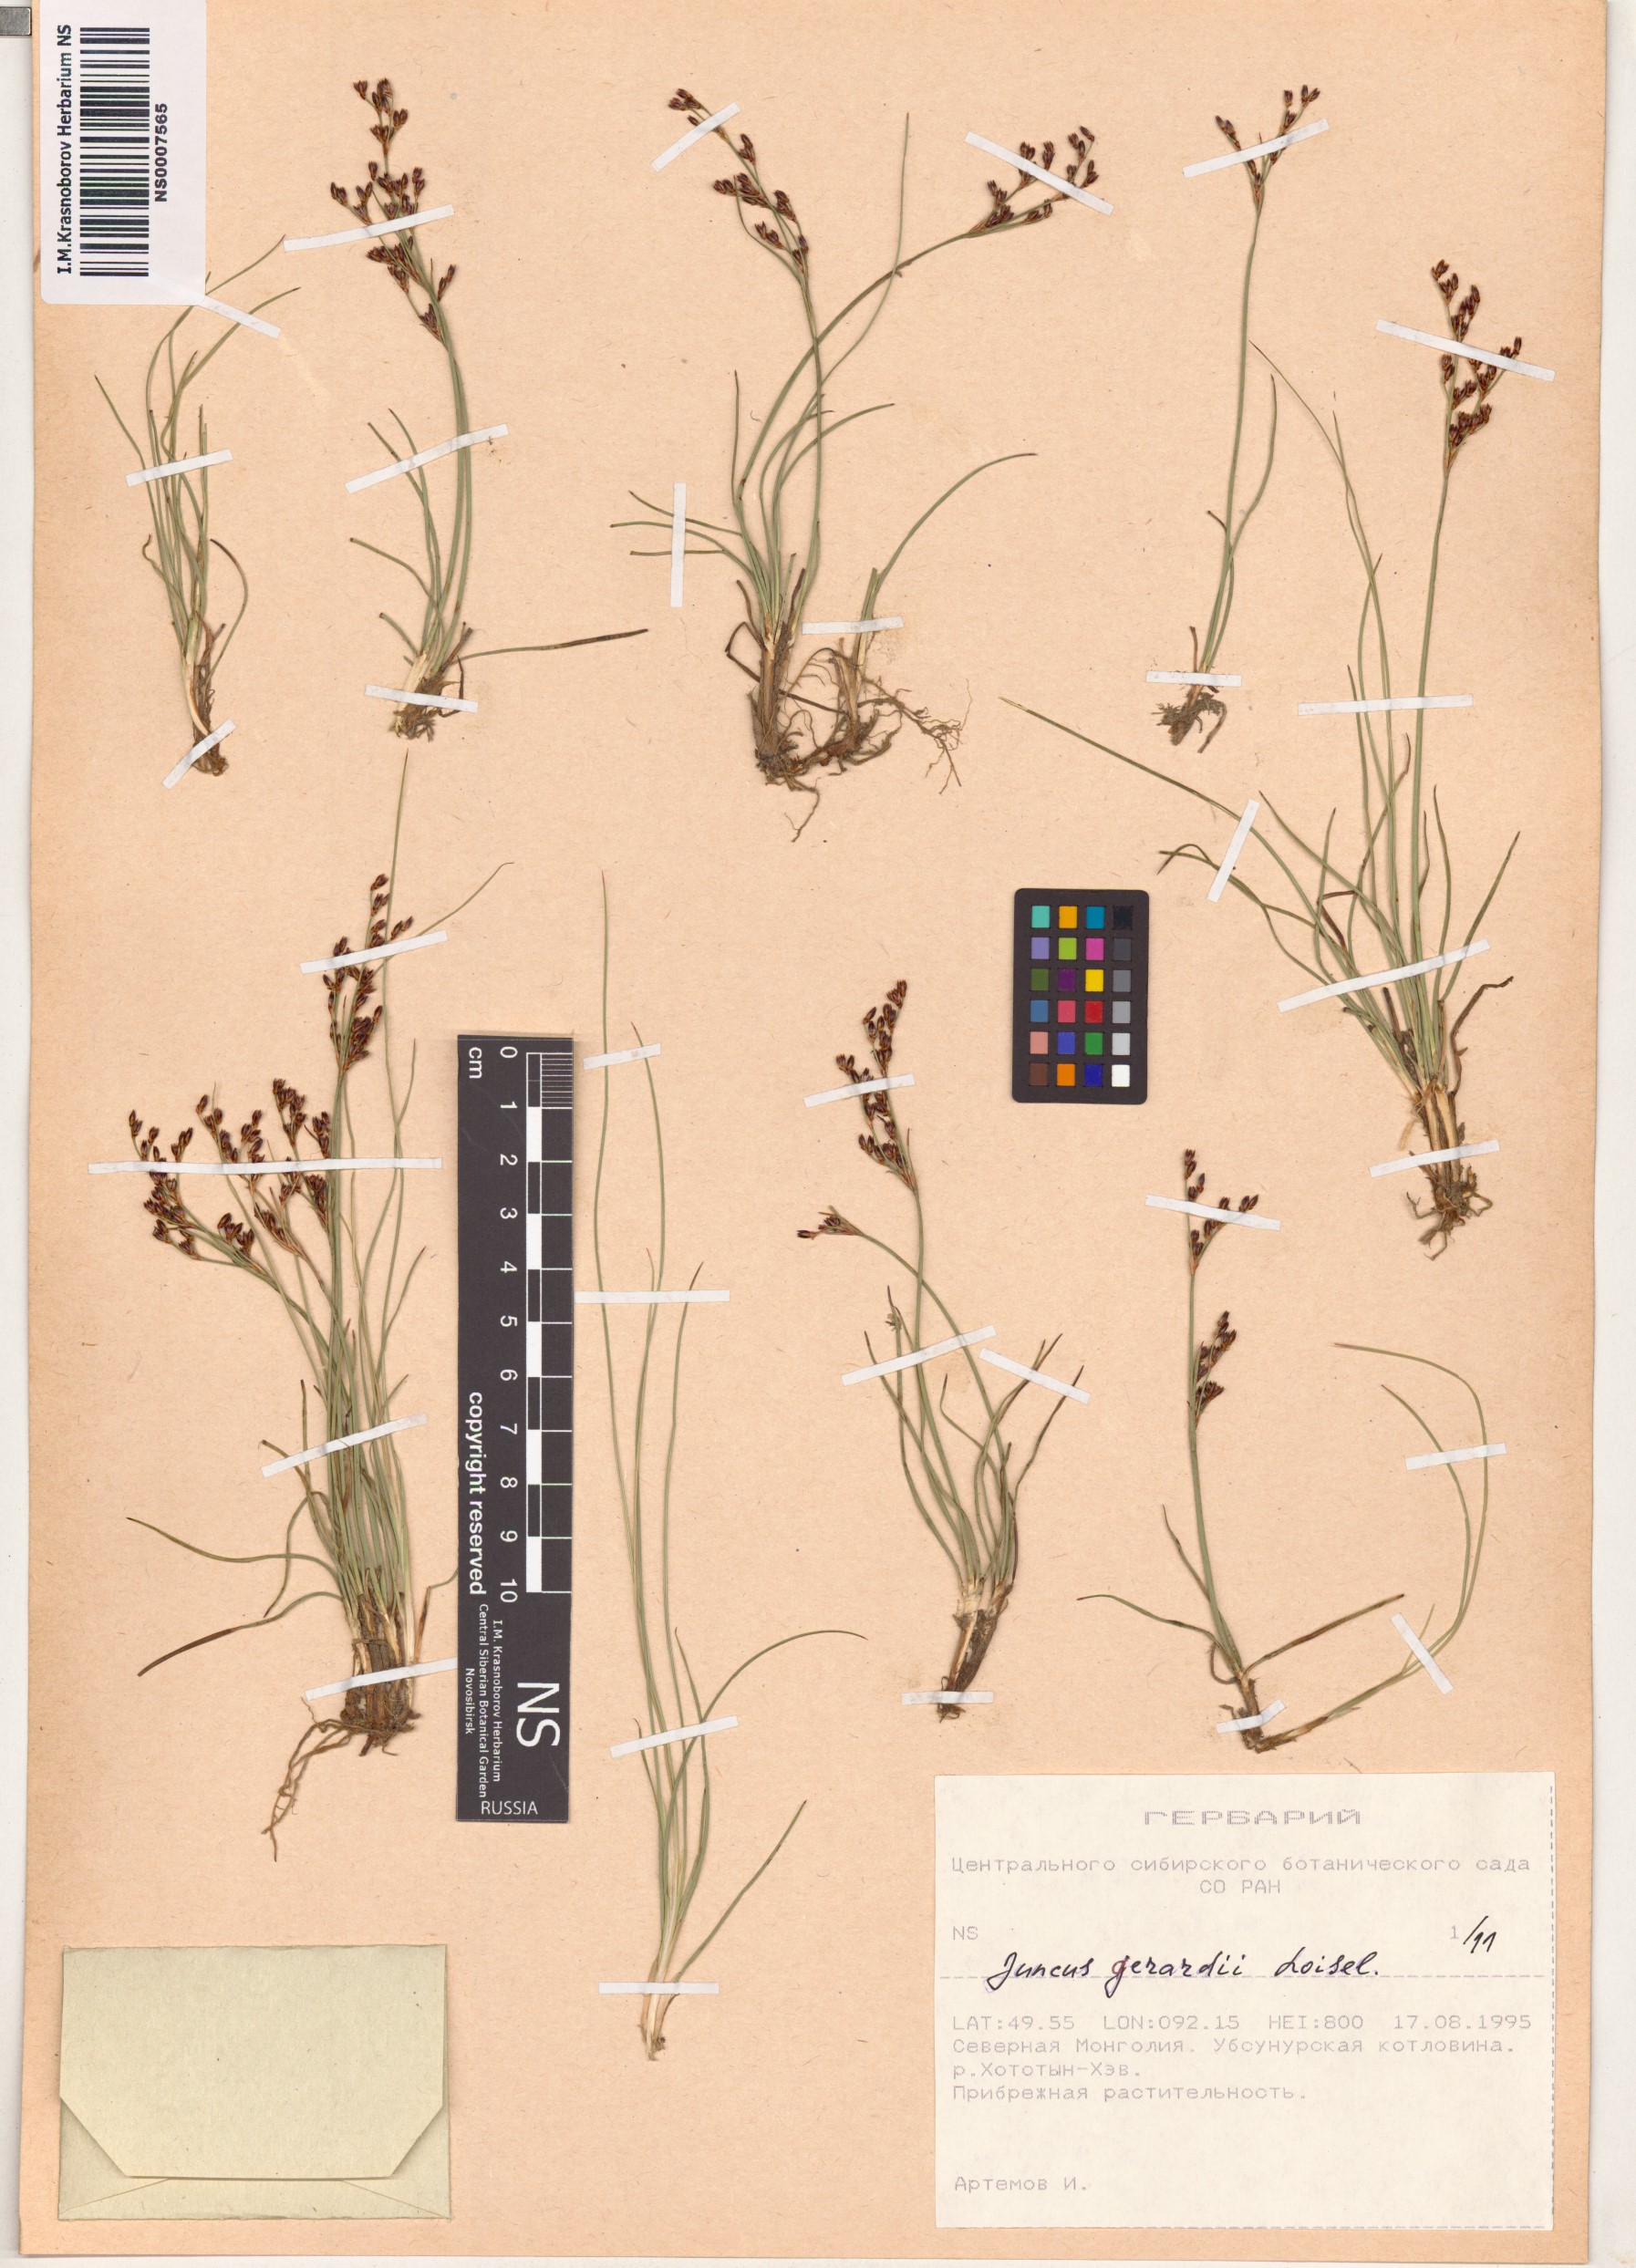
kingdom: Plantae
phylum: Tracheophyta
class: Liliopsida
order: Poales
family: Juncaceae
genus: Juncus
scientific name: Juncus gerardi
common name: Saltmarsh rush
